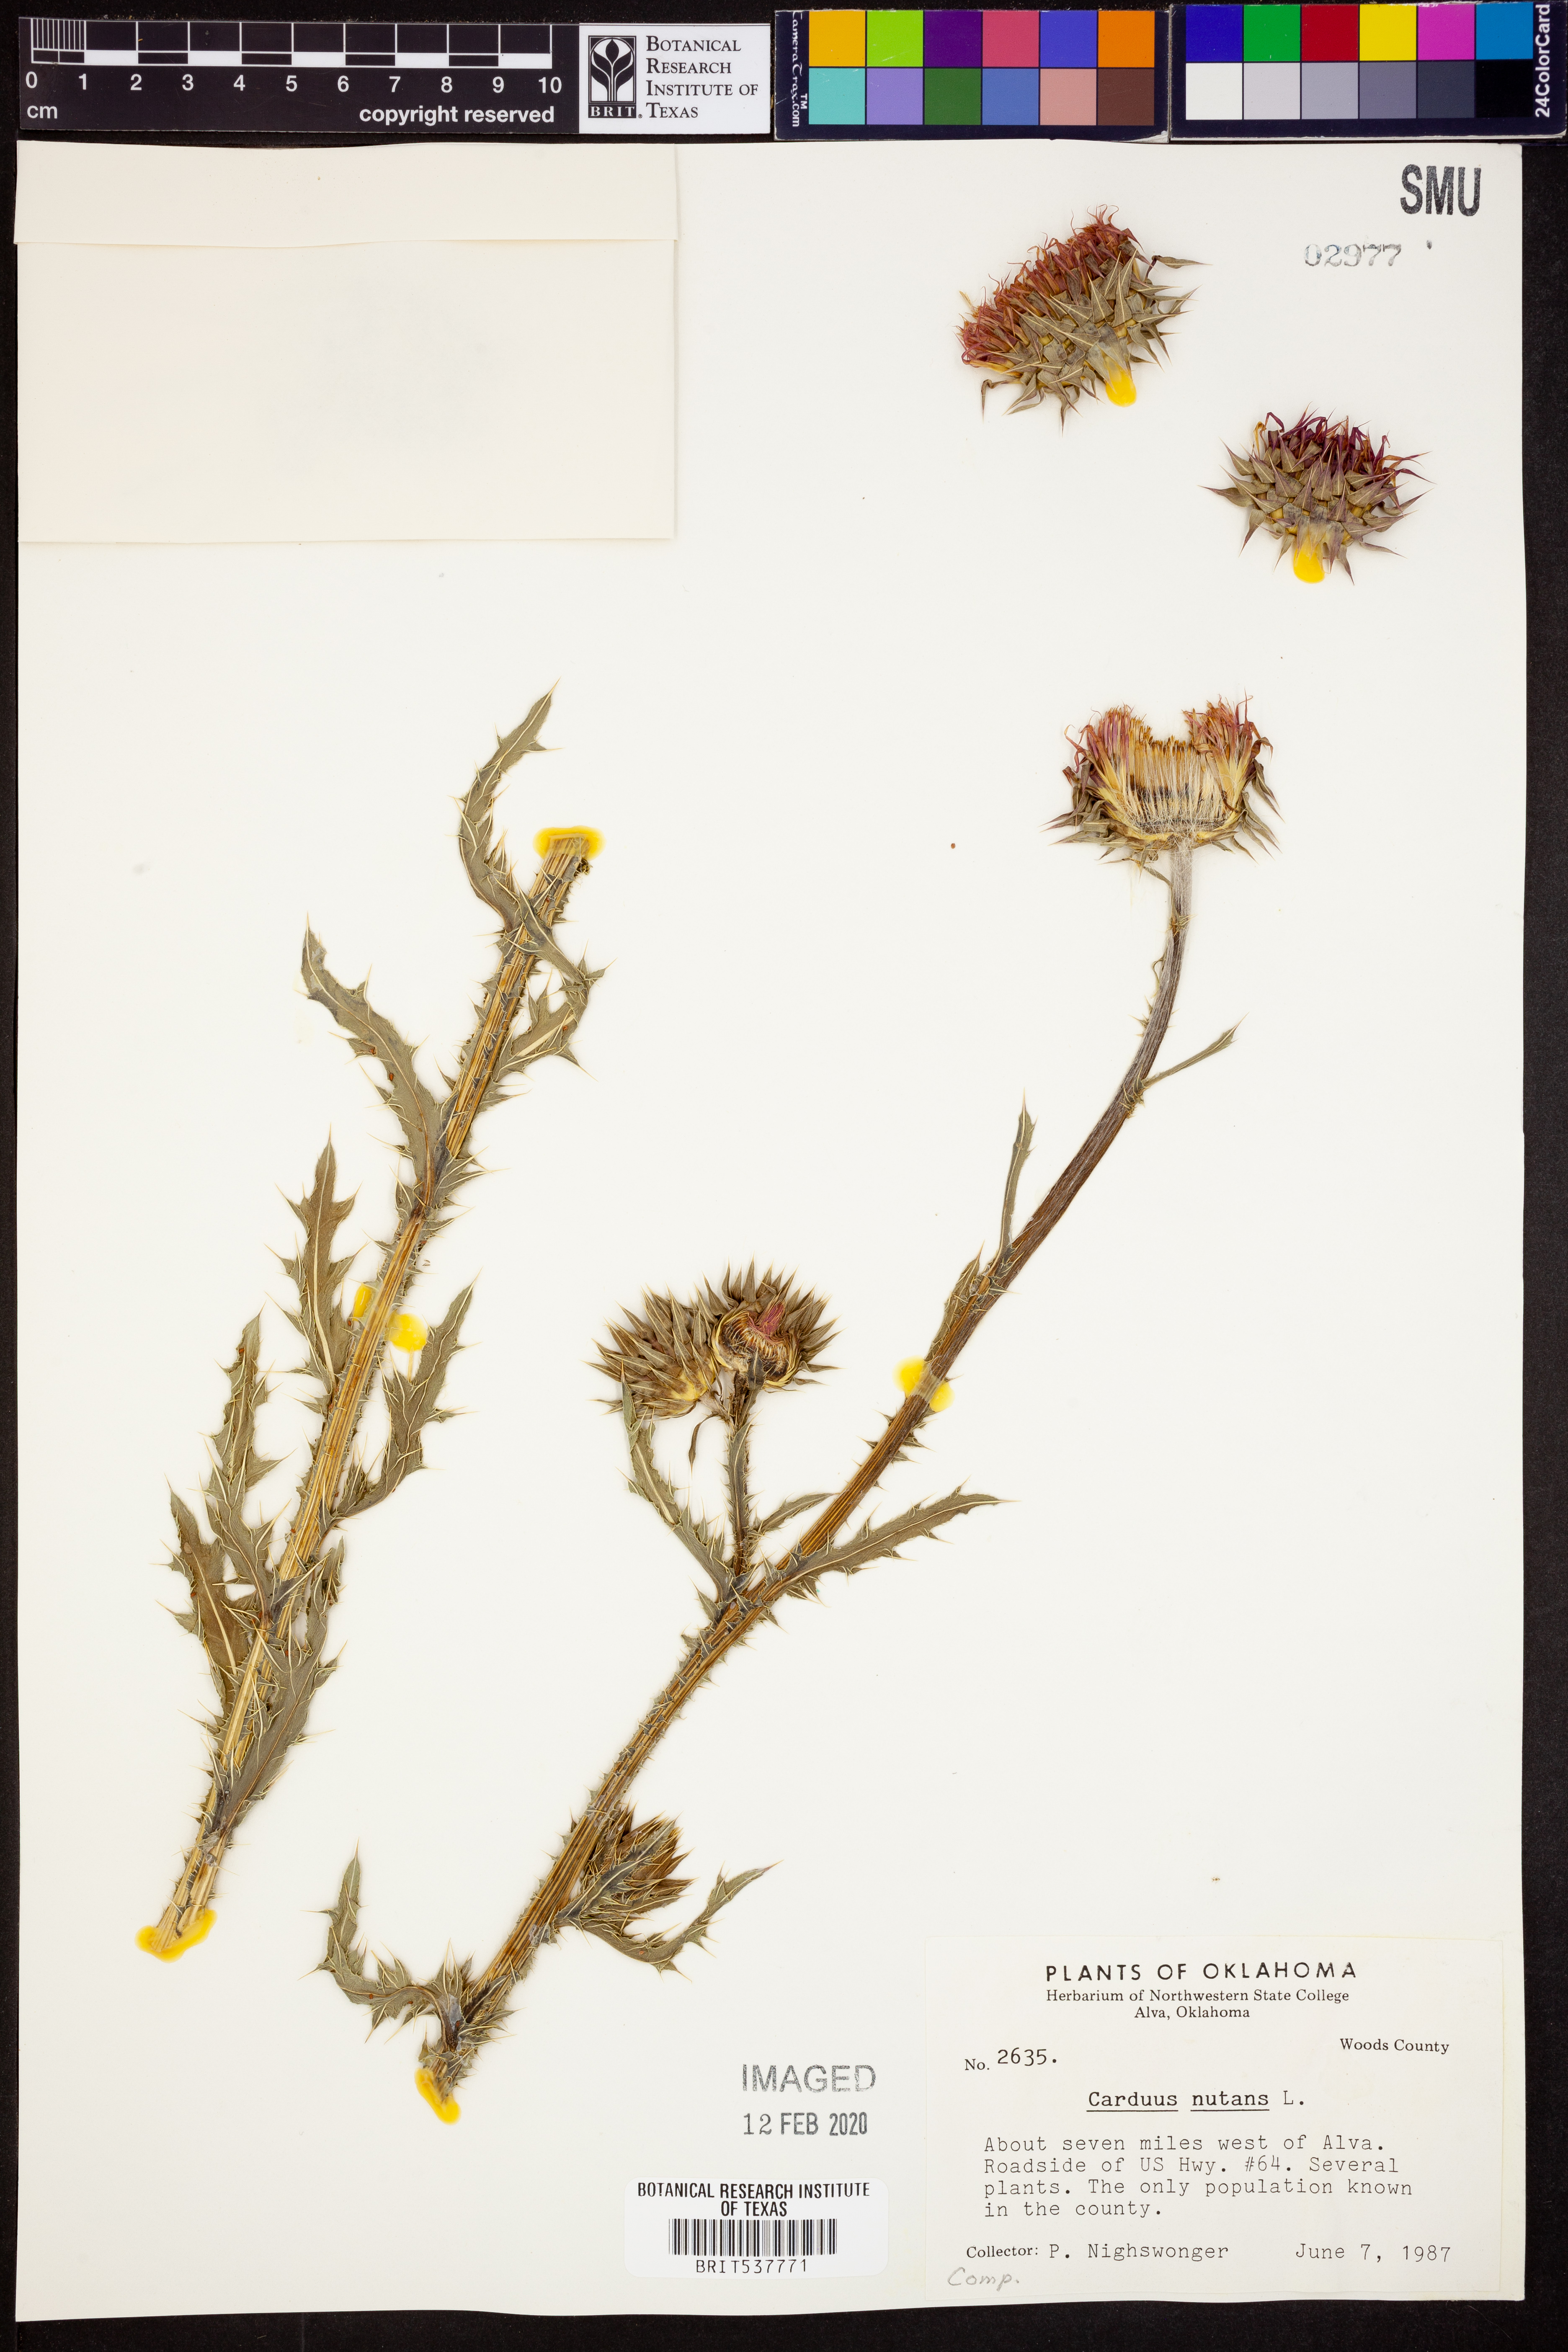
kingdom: Plantae
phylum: Tracheophyta
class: Magnoliopsida
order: Asterales
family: Asteraceae
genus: Carduus
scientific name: Carduus nutans
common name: Musk thistle
